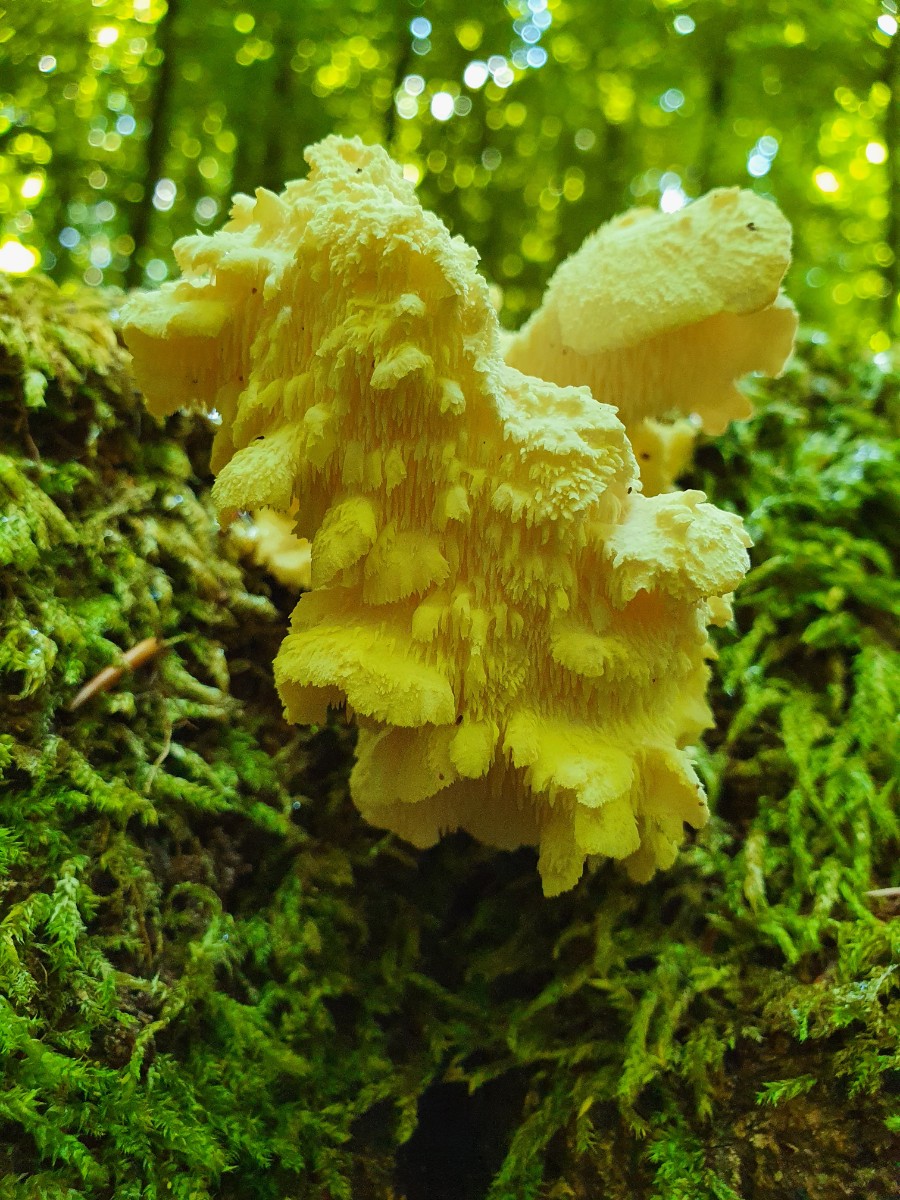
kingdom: Fungi
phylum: Basidiomycota
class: Agaricomycetes
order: Russulales
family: Hericiaceae
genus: Hericium
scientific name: Hericium cirrhatum
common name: børstepigsvamp
